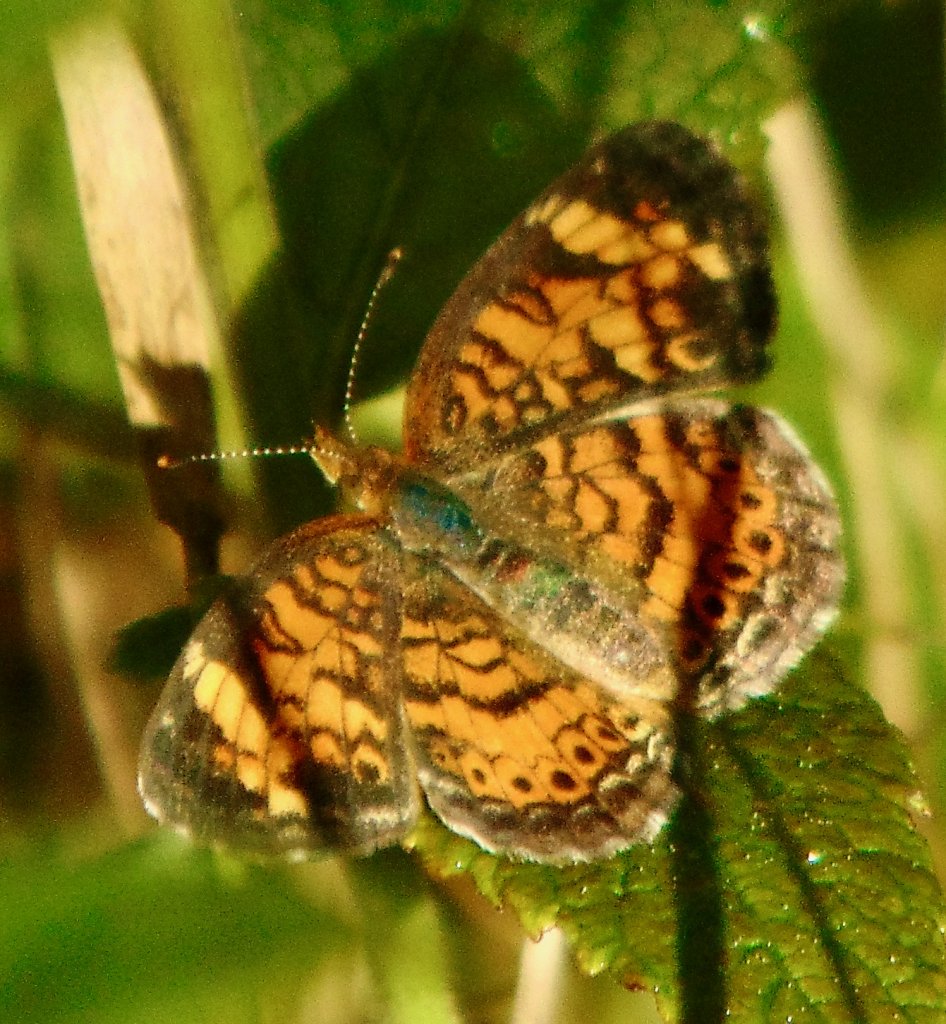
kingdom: Animalia
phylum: Arthropoda
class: Insecta
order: Lepidoptera
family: Nymphalidae
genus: Phyciodes
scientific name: Phyciodes tharos
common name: Pearl Crescent
